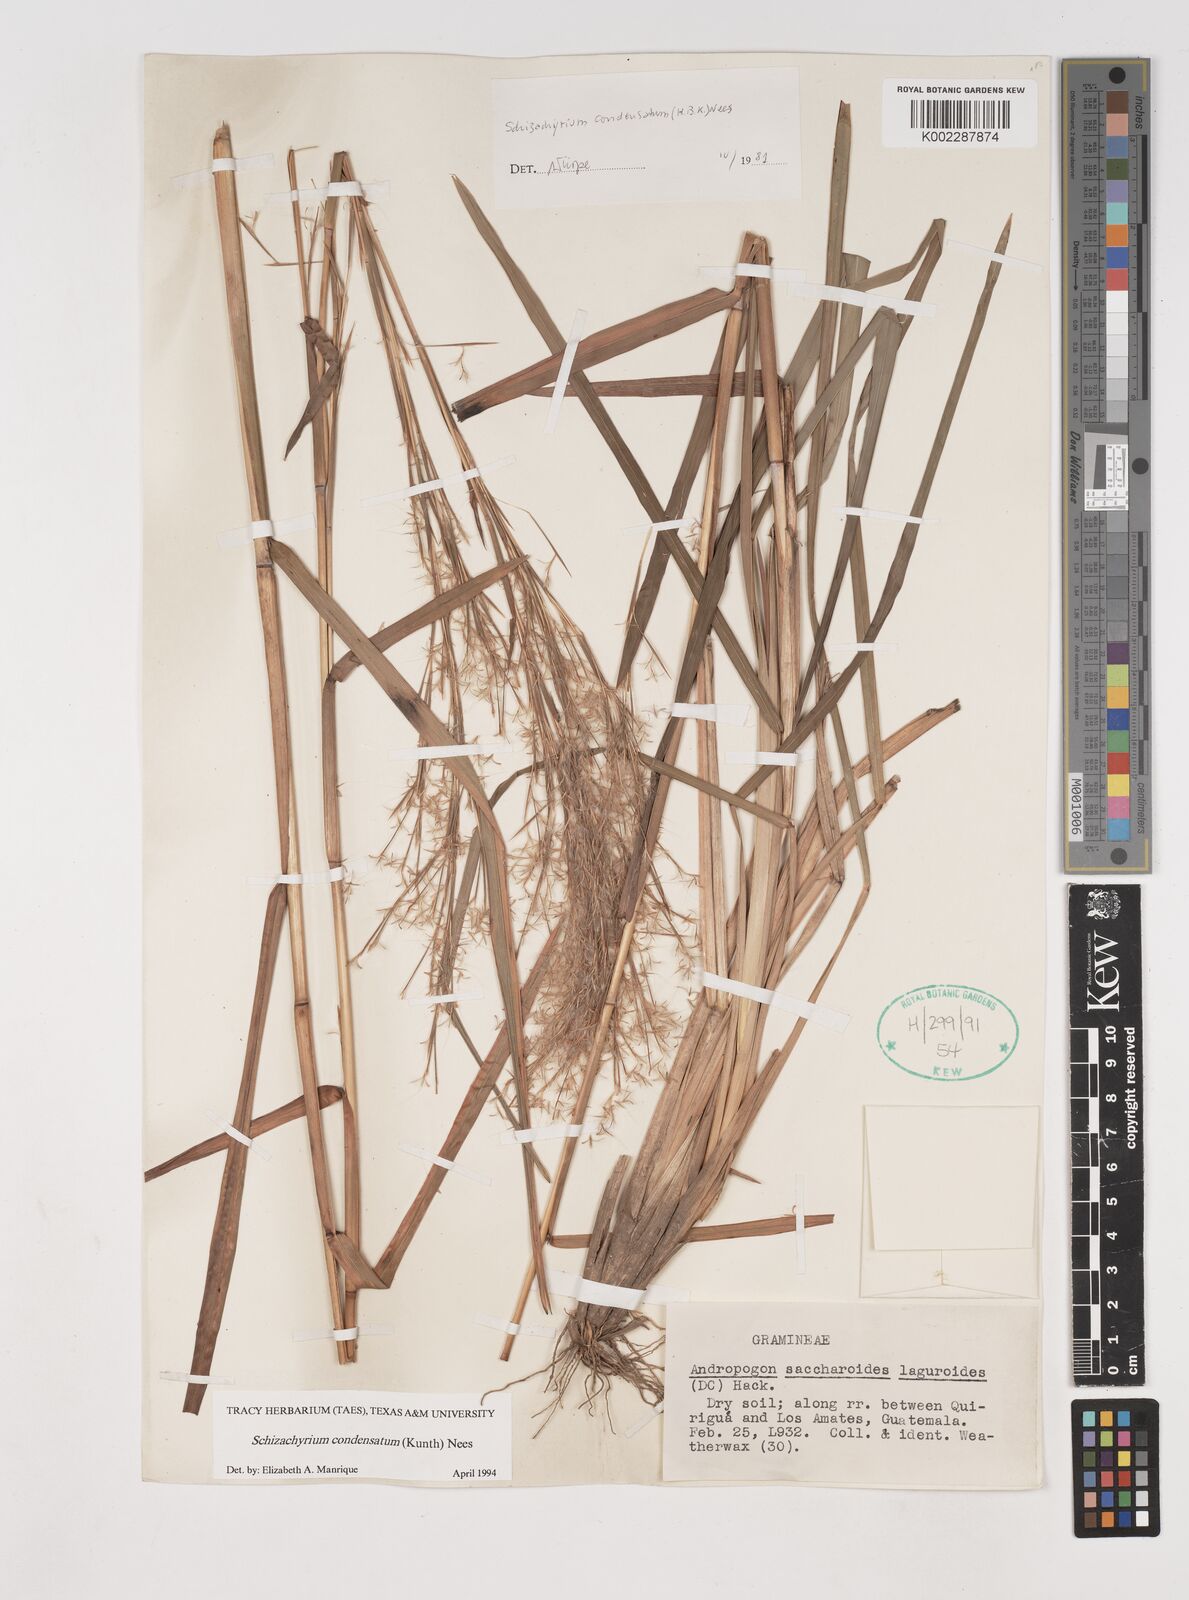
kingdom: Plantae
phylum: Tracheophyta
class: Liliopsida
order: Poales
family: Poaceae
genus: Schizachyrium
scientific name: Schizachyrium condensatum
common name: Bush beardgrass
